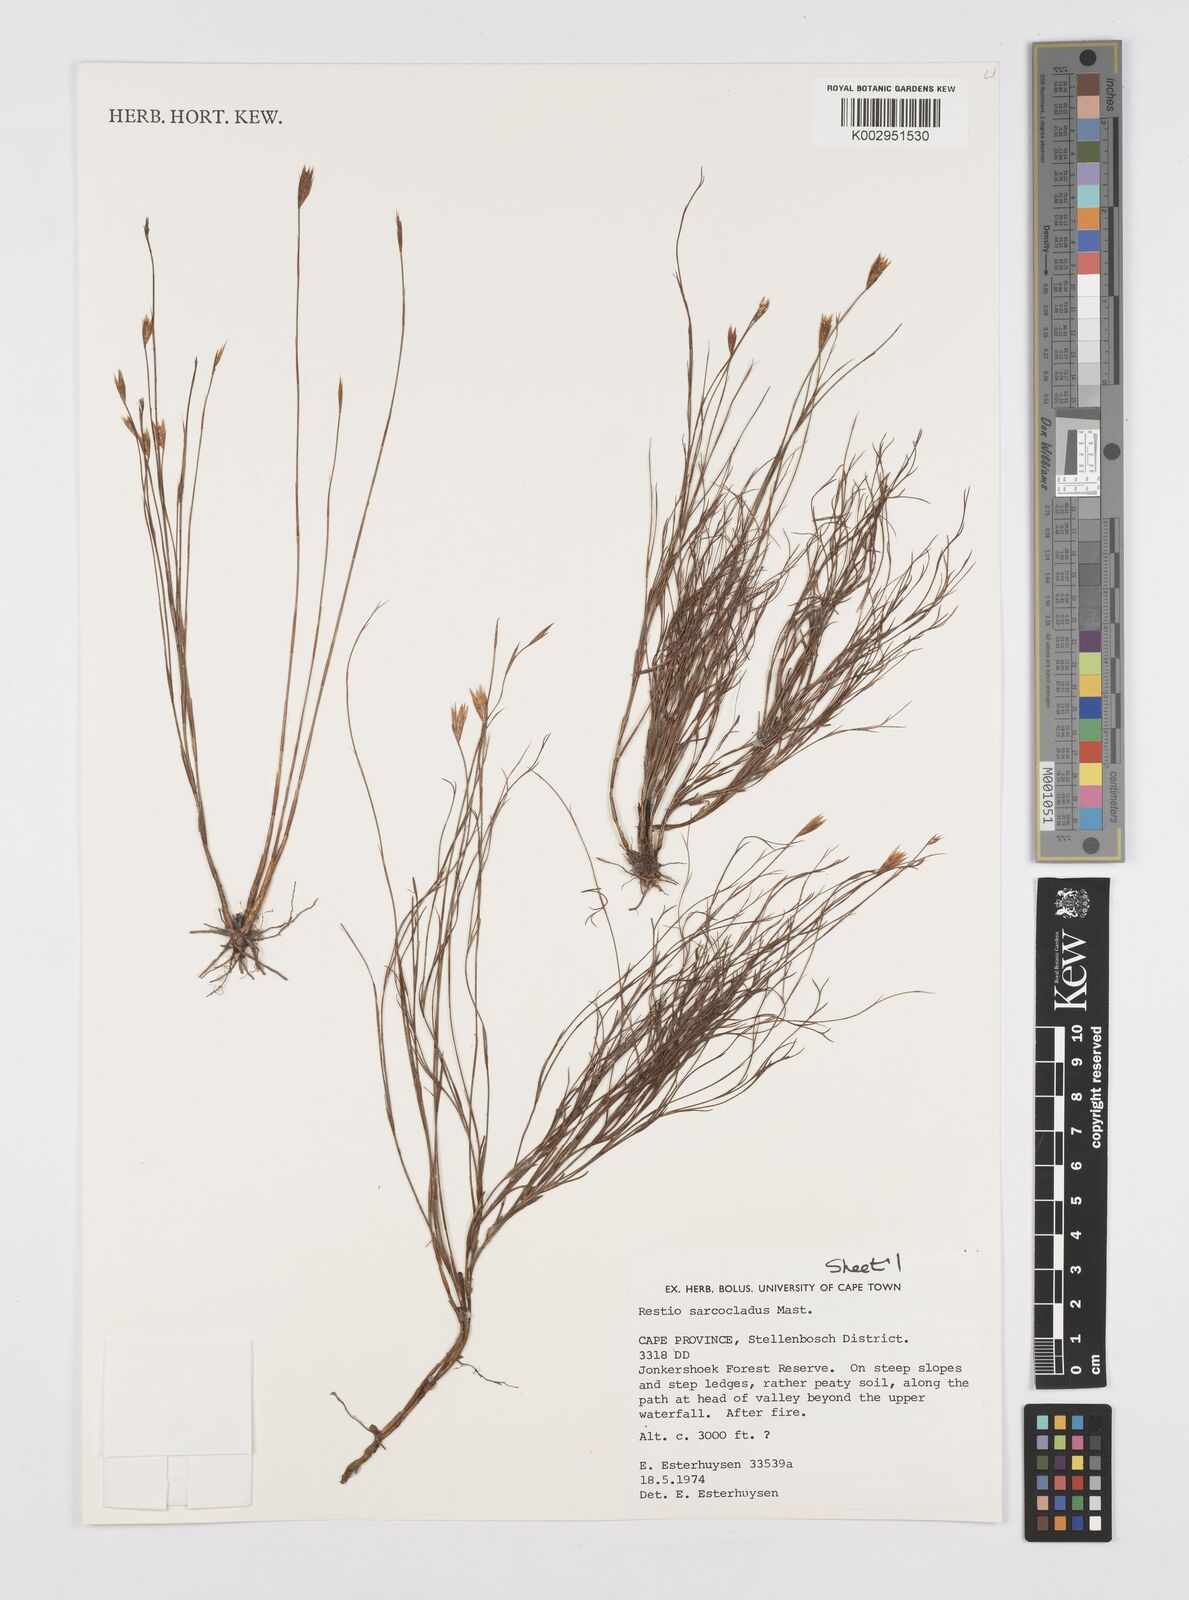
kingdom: Plantae
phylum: Tracheophyta
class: Liliopsida
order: Poales
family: Restionaceae
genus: Restio
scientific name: Restio saroclados
